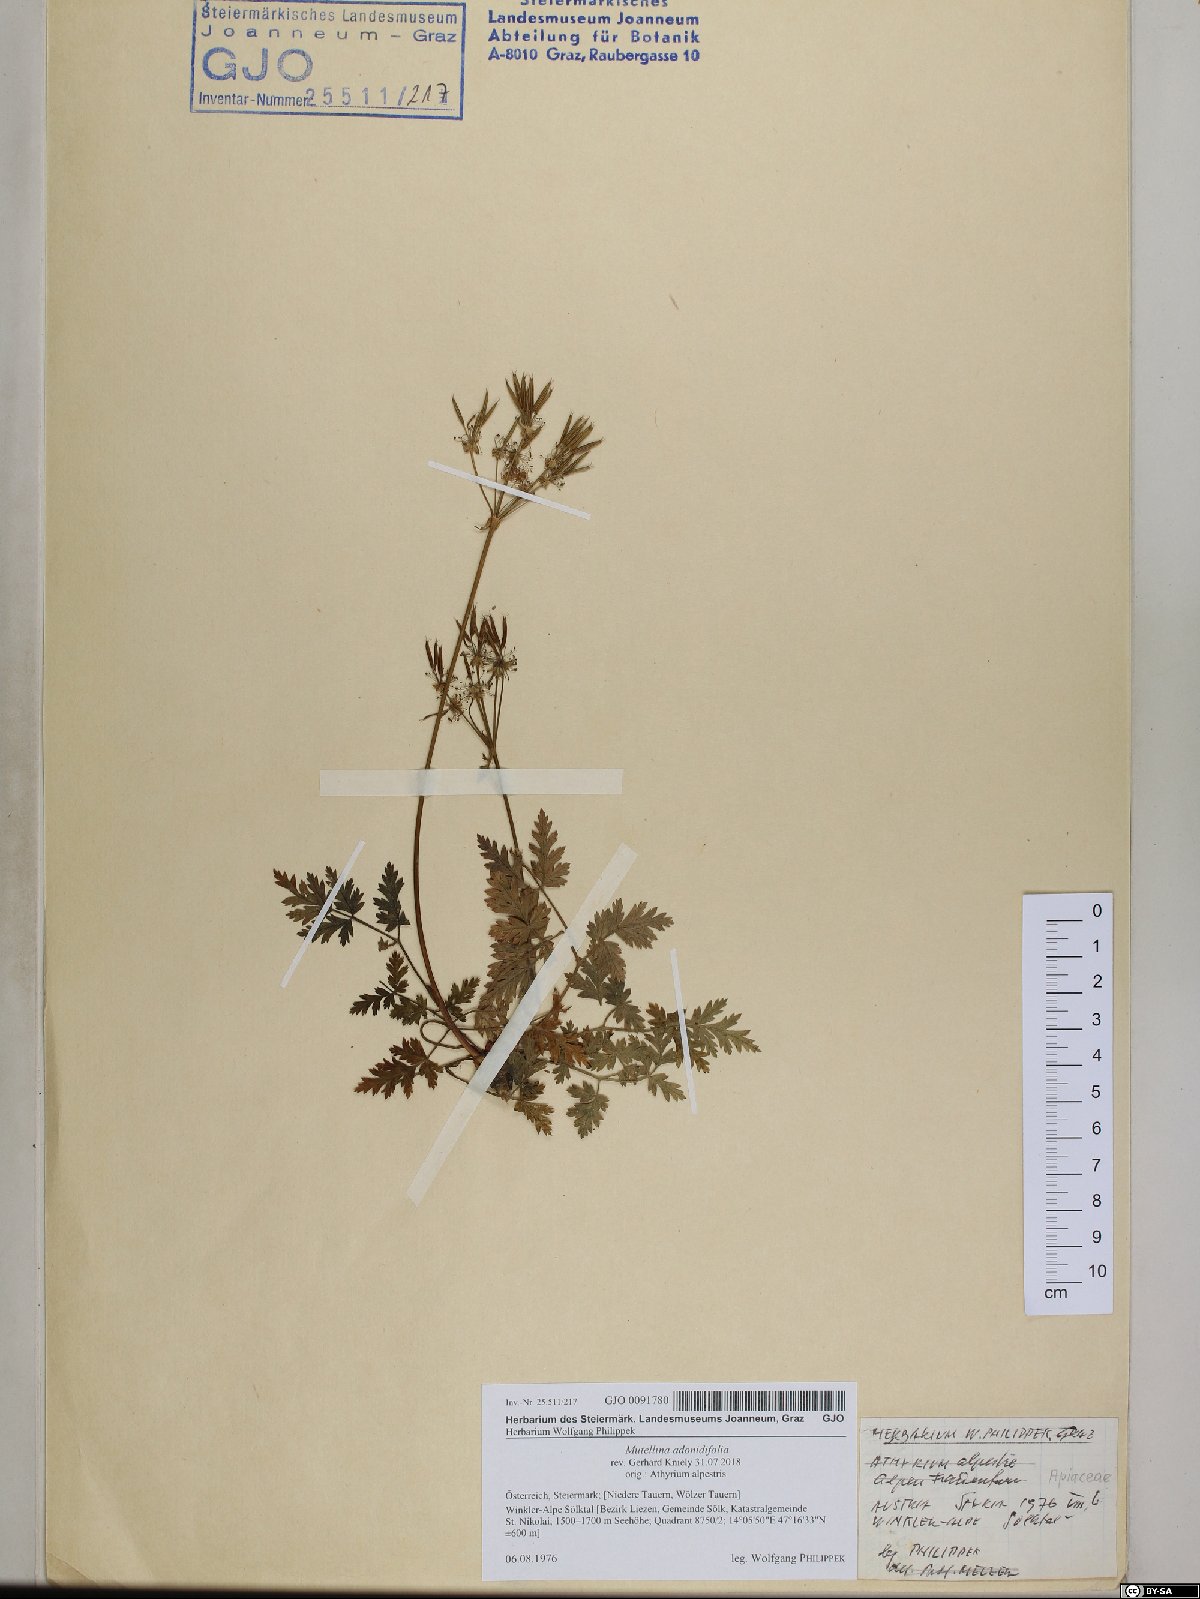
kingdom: Plantae
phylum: Tracheophyta
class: Magnoliopsida
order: Apiales
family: Apiaceae
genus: Mutellina
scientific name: Mutellina adonidifolia
